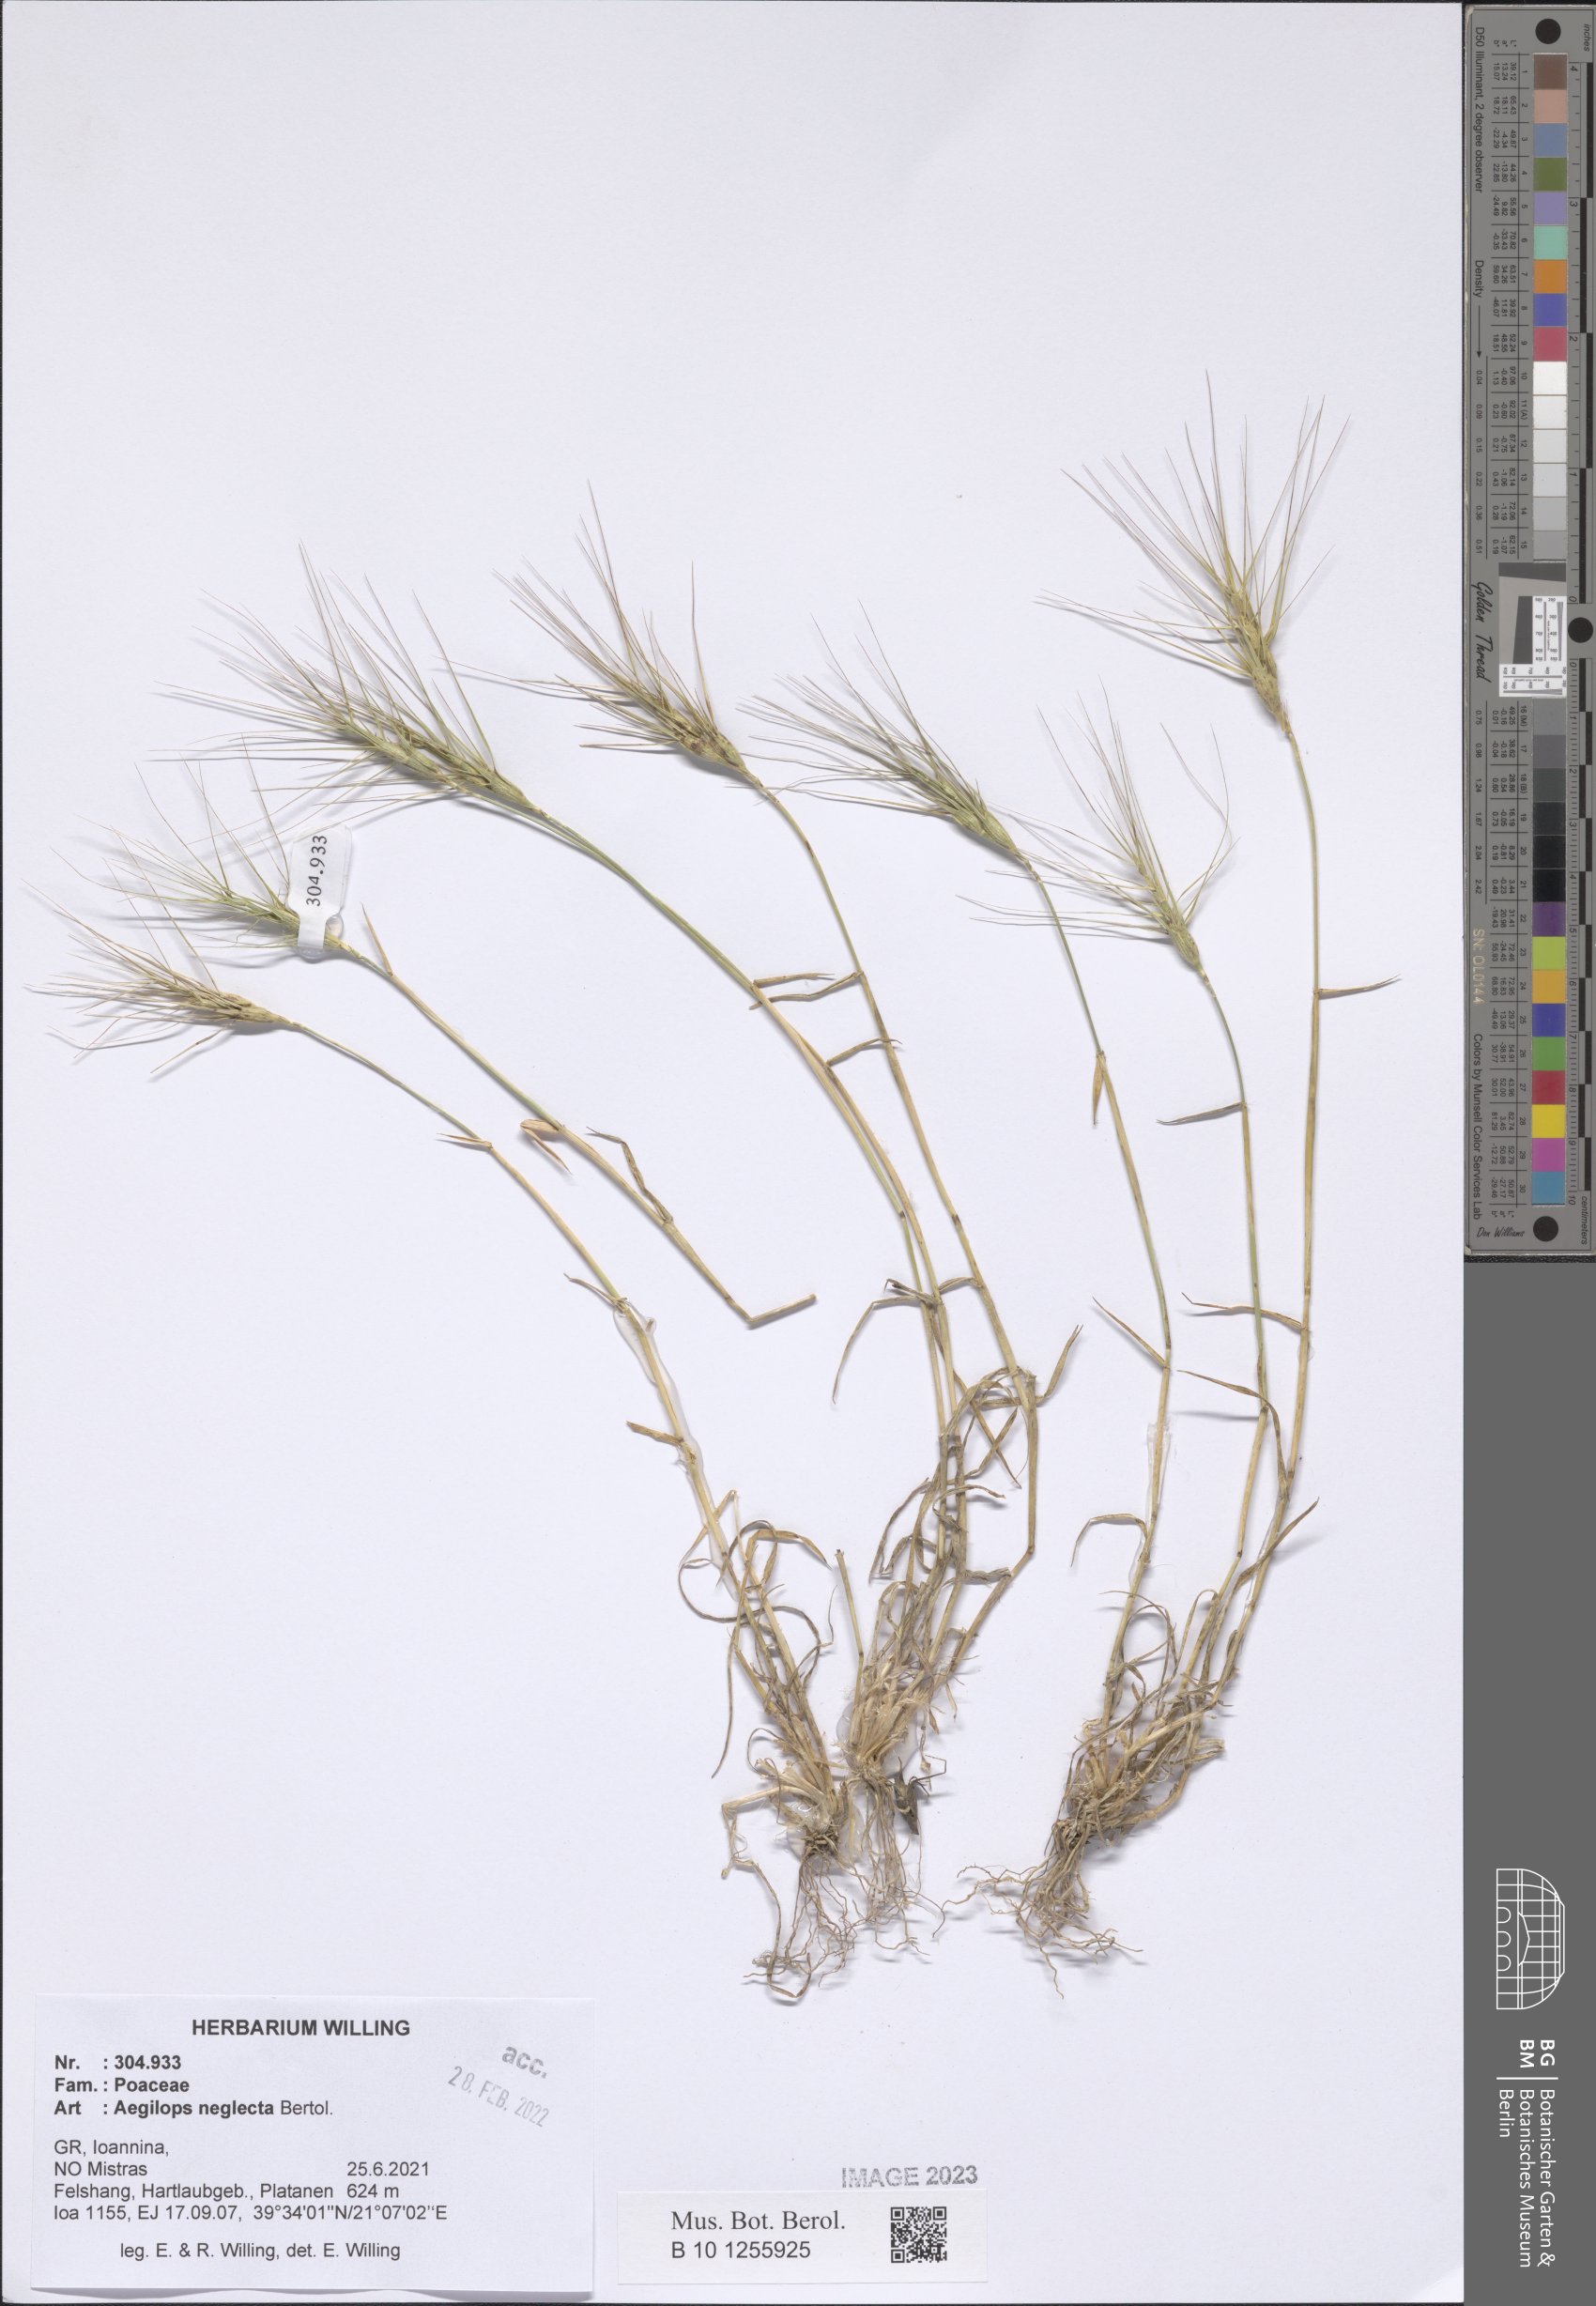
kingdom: Plantae
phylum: Tracheophyta
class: Liliopsida
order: Poales
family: Poaceae
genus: Aegilops
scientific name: Aegilops neglecta
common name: Three-awn goat grass
